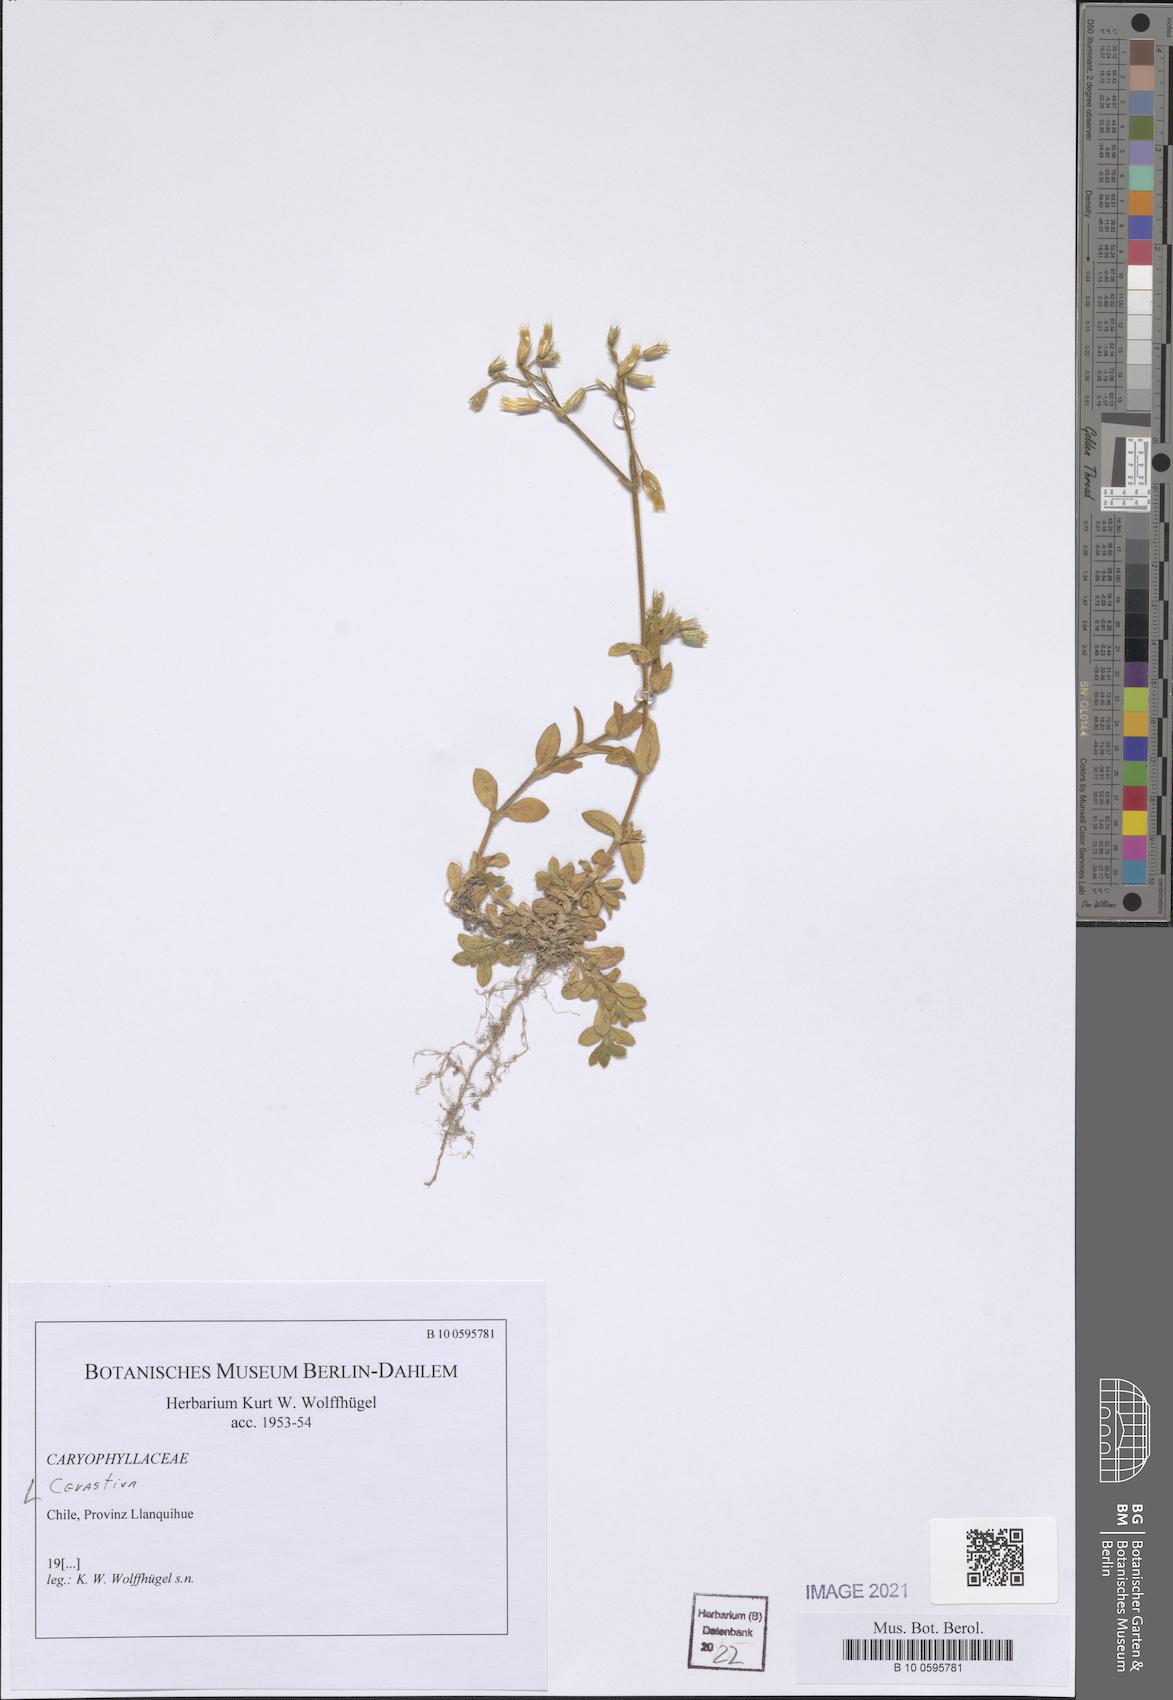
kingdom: Plantae
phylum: Tracheophyta
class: Magnoliopsida
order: Caryophyllales
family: Caryophyllaceae
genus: Cerastium
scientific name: Cerastium
